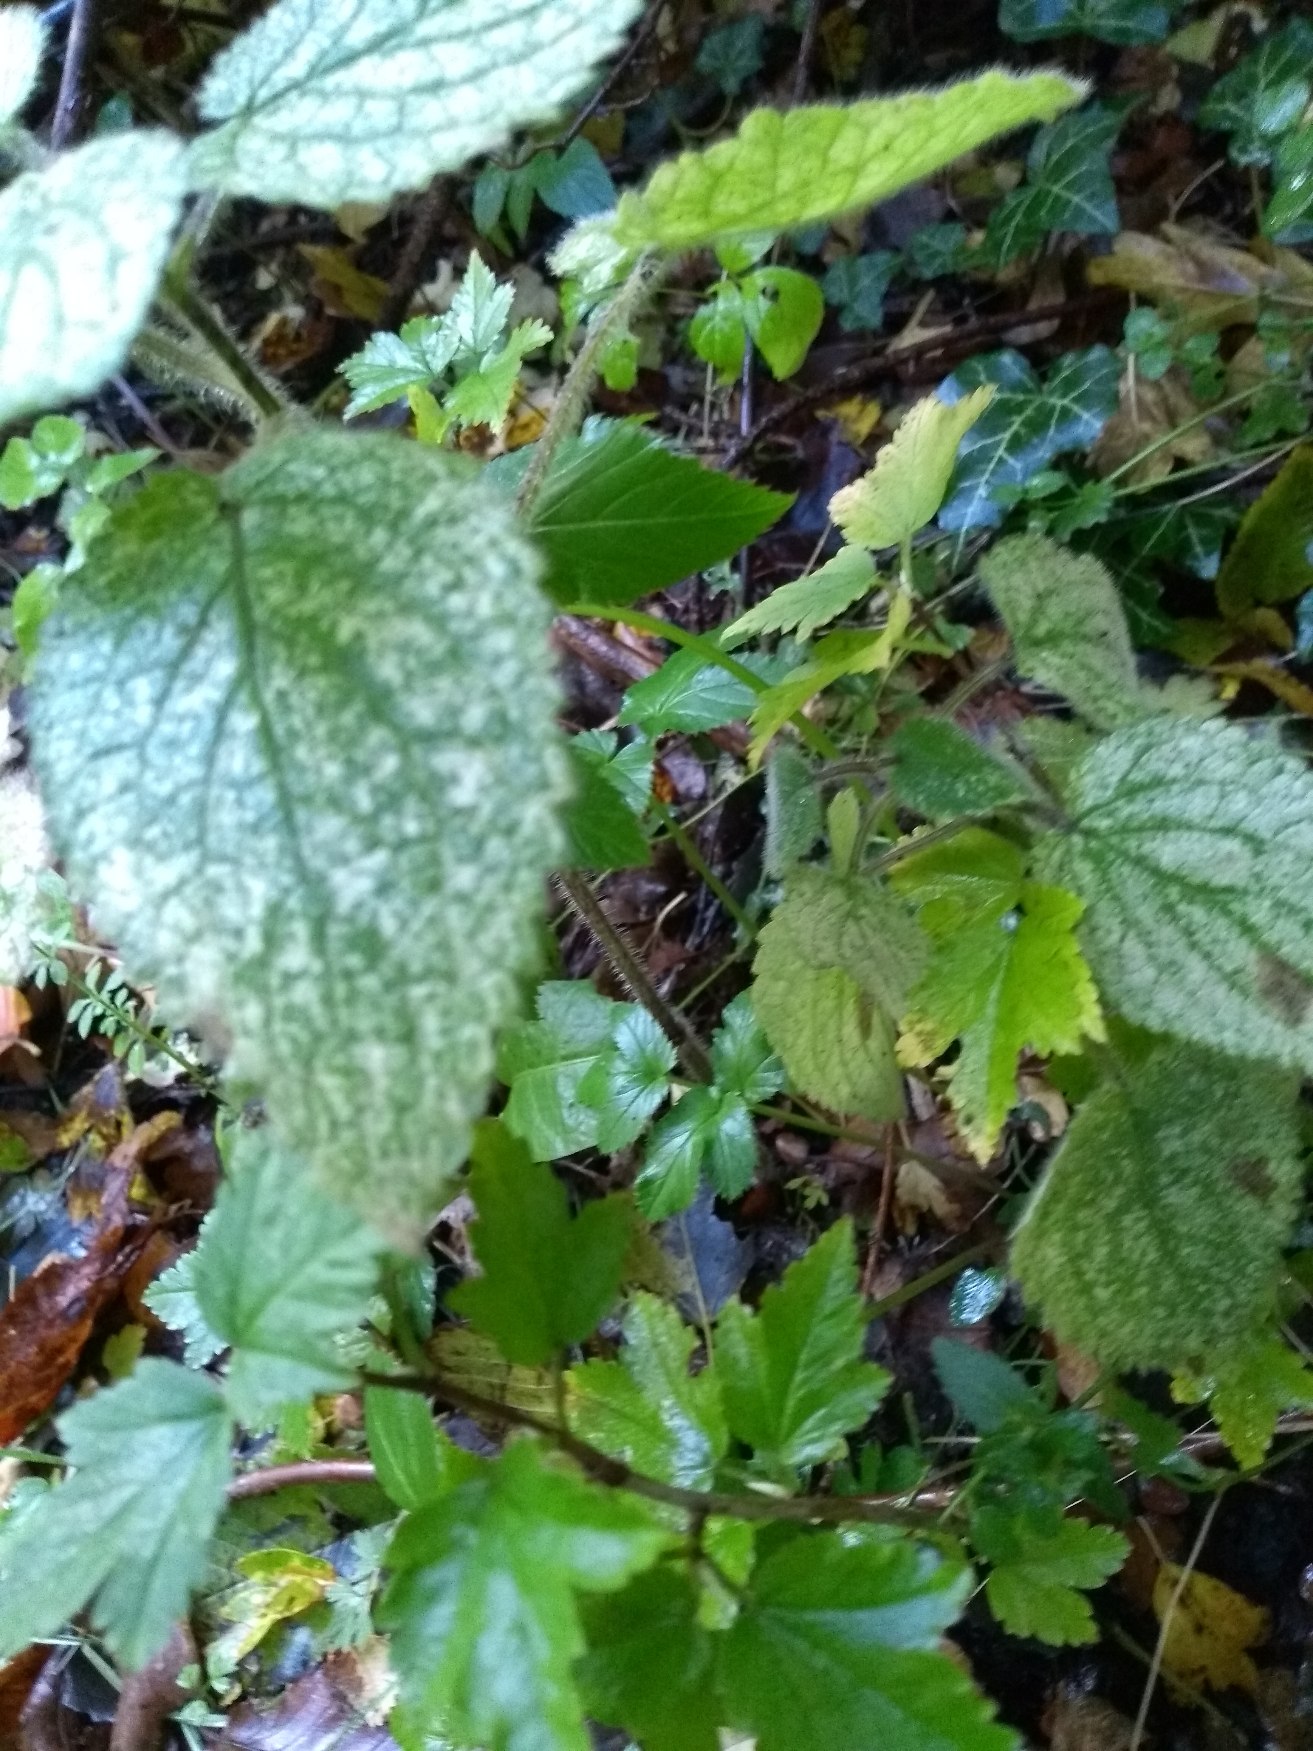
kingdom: Plantae
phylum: Tracheophyta
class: Magnoliopsida
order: Lamiales
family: Lamiaceae
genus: Lamium
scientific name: Lamium galeobdolon
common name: Guldnælde
